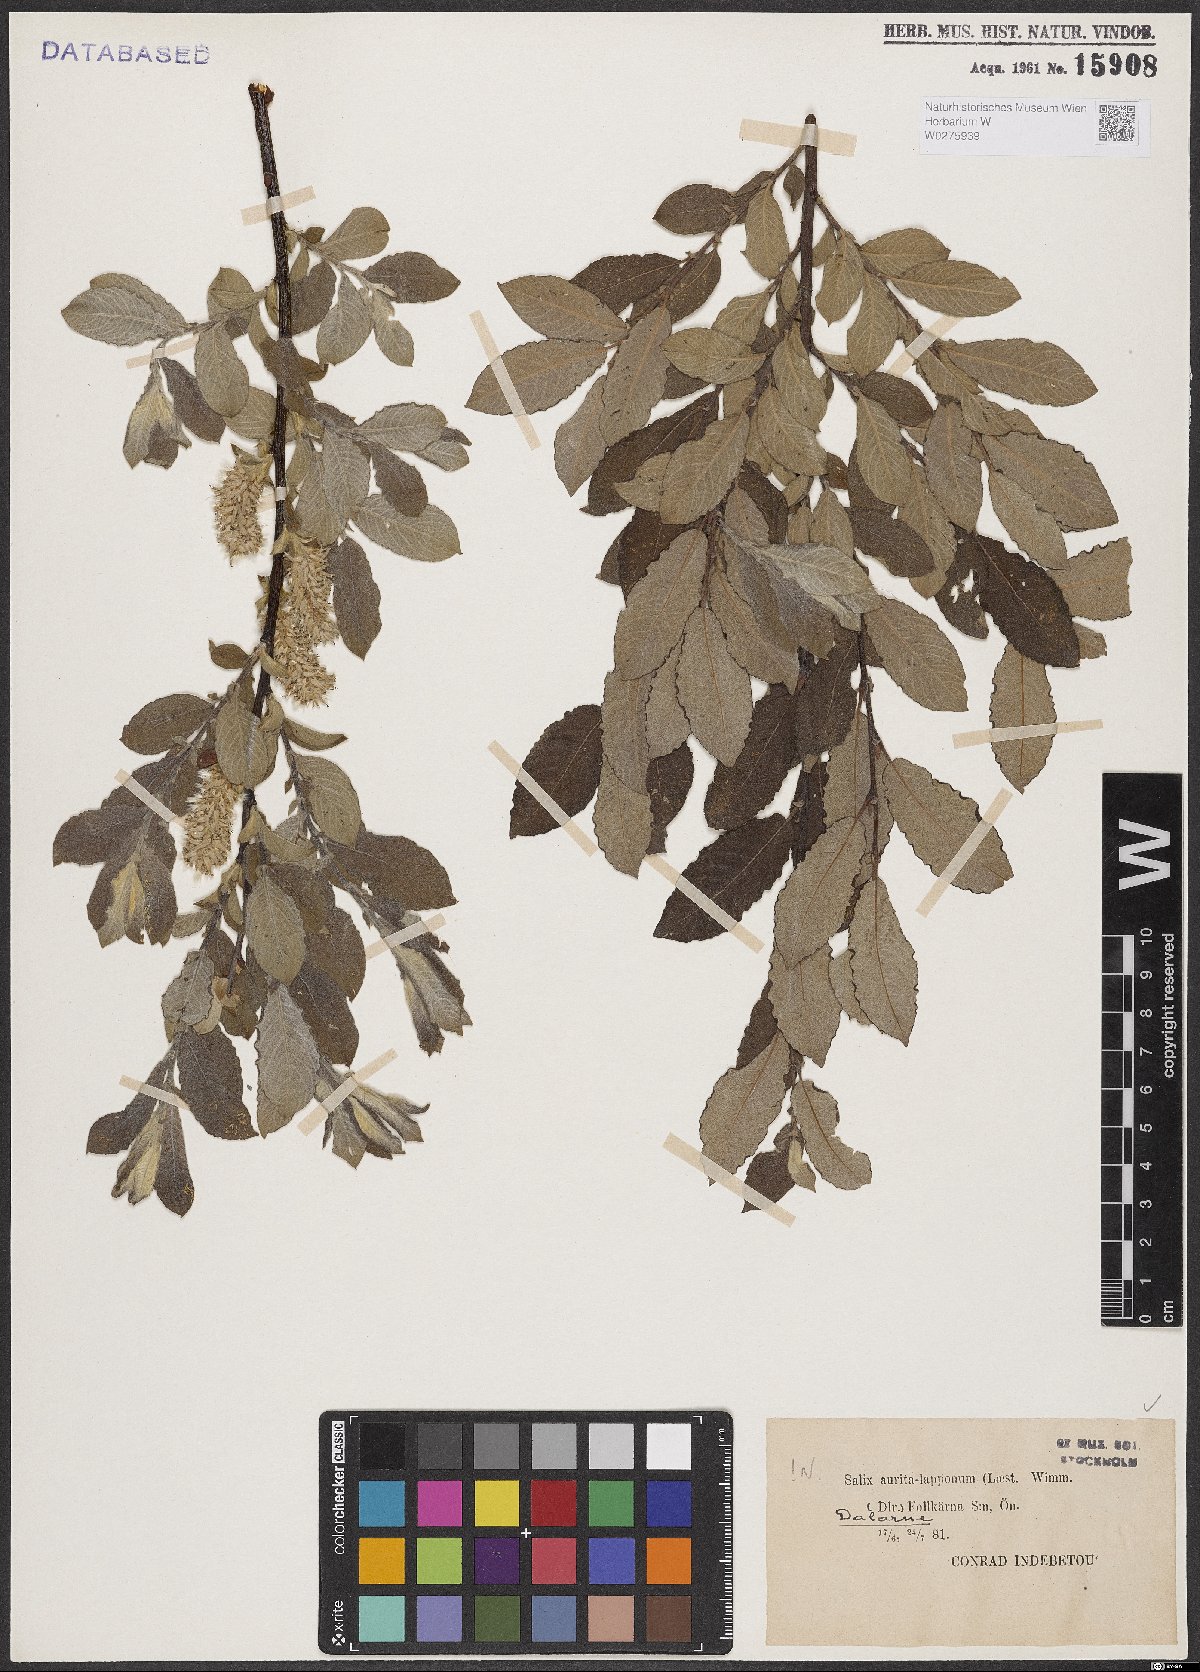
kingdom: Plantae
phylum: Tracheophyta
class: Magnoliopsida
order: Malpighiales
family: Salicaceae
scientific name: Salicaceae
